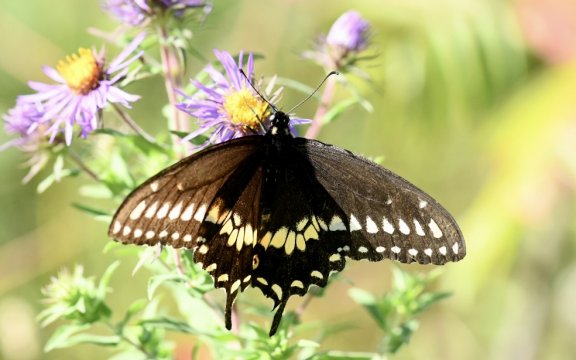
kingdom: Animalia
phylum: Arthropoda
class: Insecta
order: Lepidoptera
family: Papilionidae
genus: Papilio
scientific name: Papilio polyxenes
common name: Black Swallowtail
